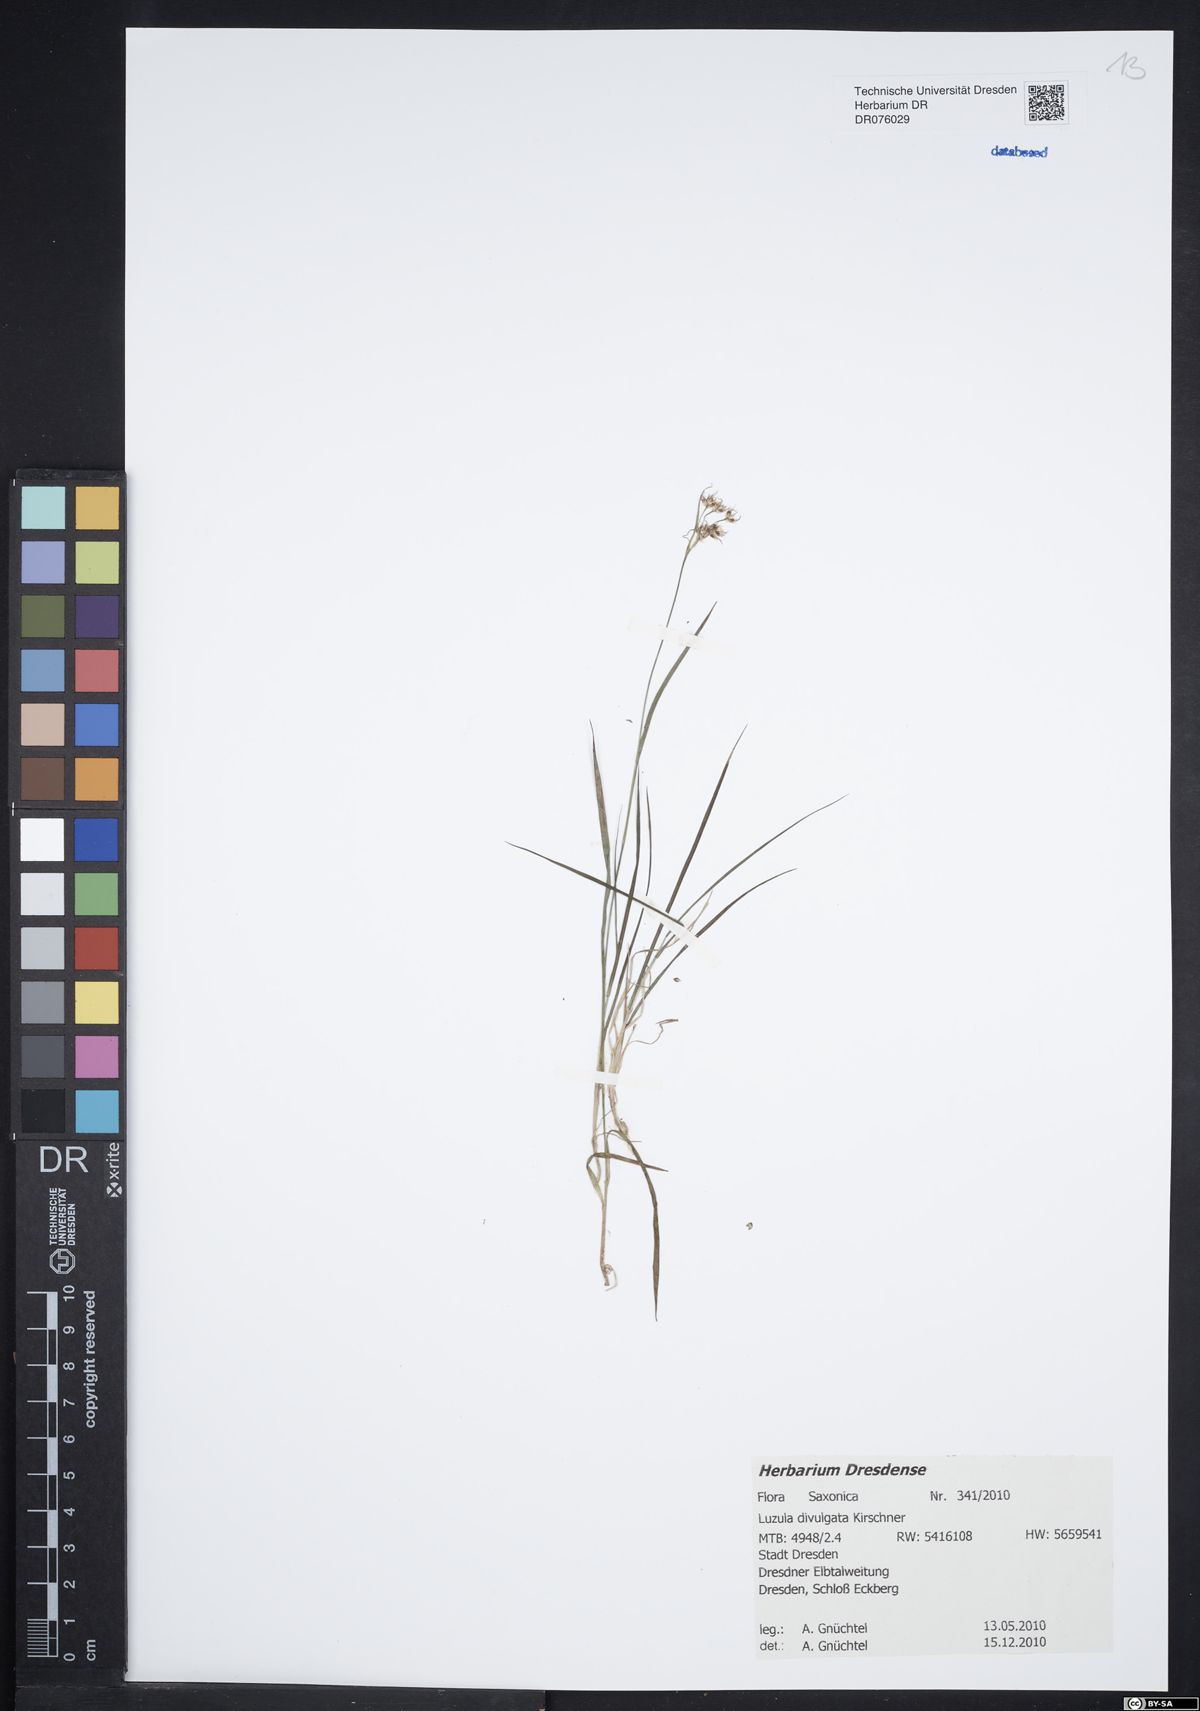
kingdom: Plantae
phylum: Tracheophyta
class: Liliopsida
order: Poales
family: Juncaceae
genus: Luzula
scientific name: Luzula divulgata
